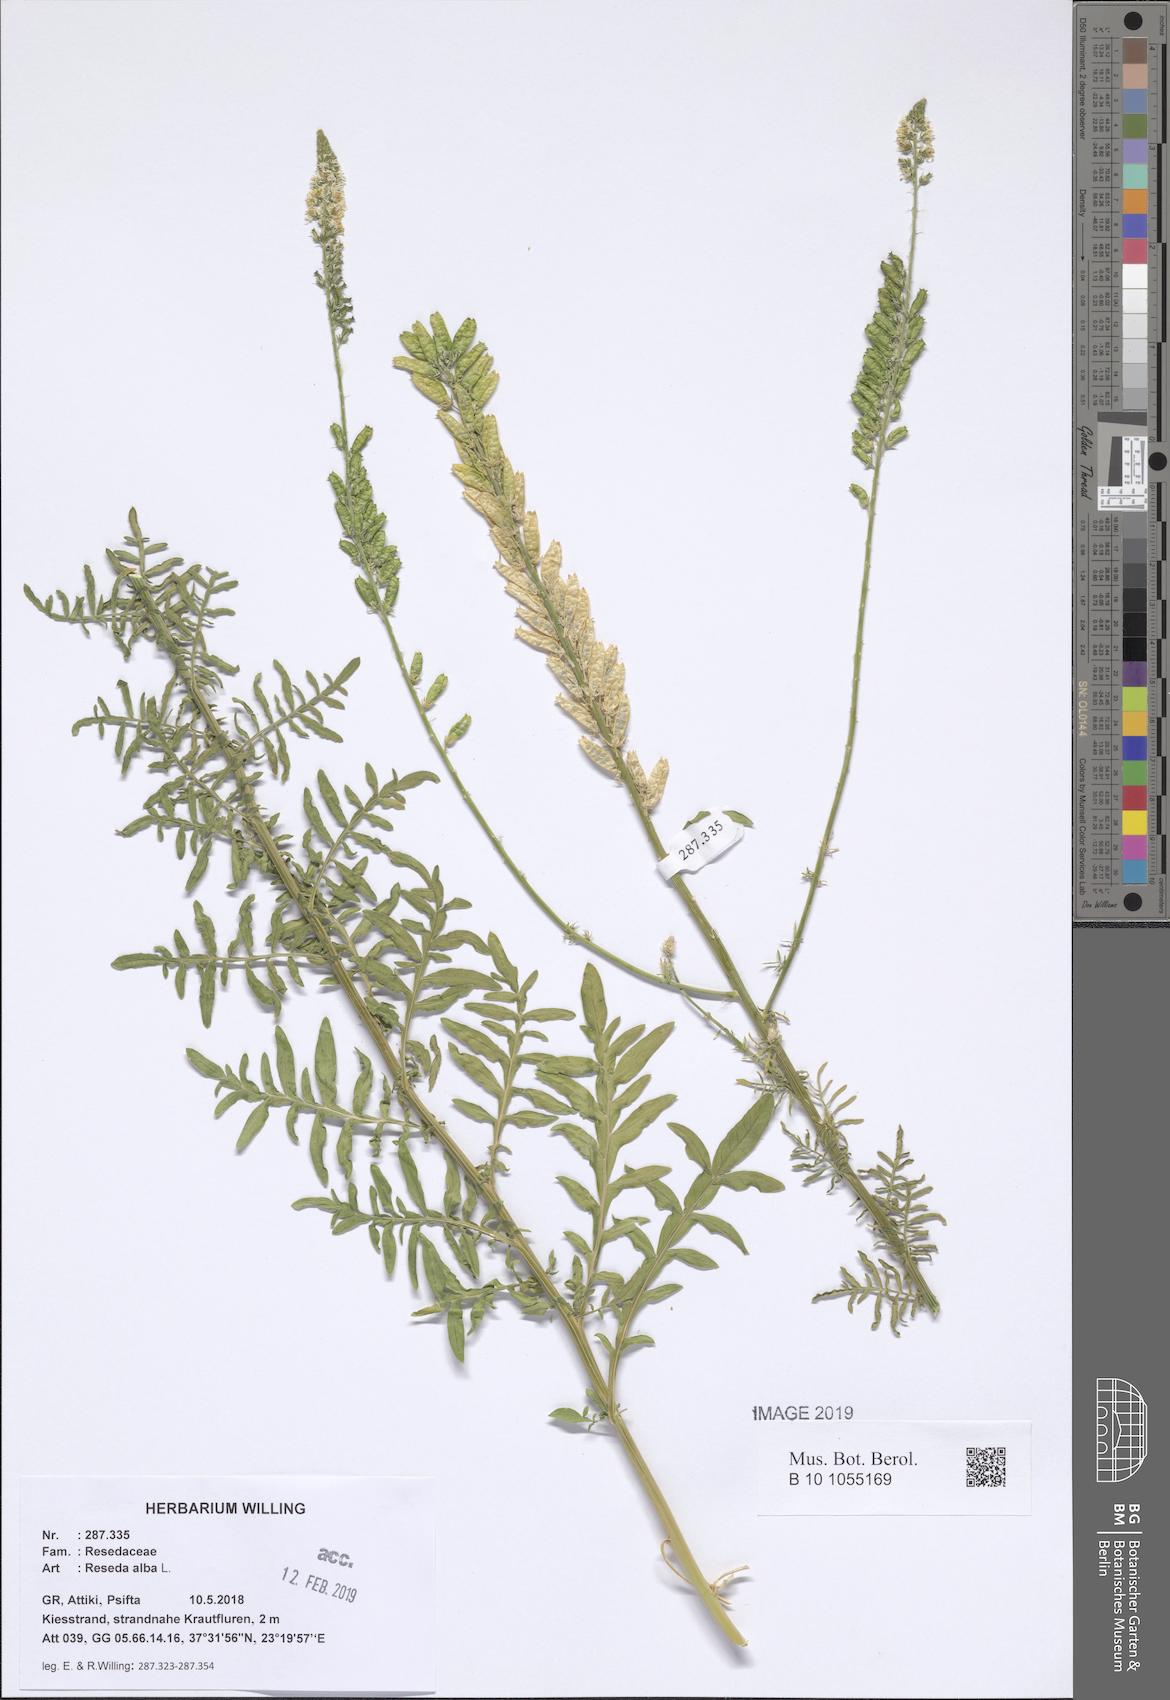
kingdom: Plantae
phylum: Tracheophyta
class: Magnoliopsida
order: Brassicales
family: Resedaceae
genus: Reseda
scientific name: Reseda alba
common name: White mignonette
